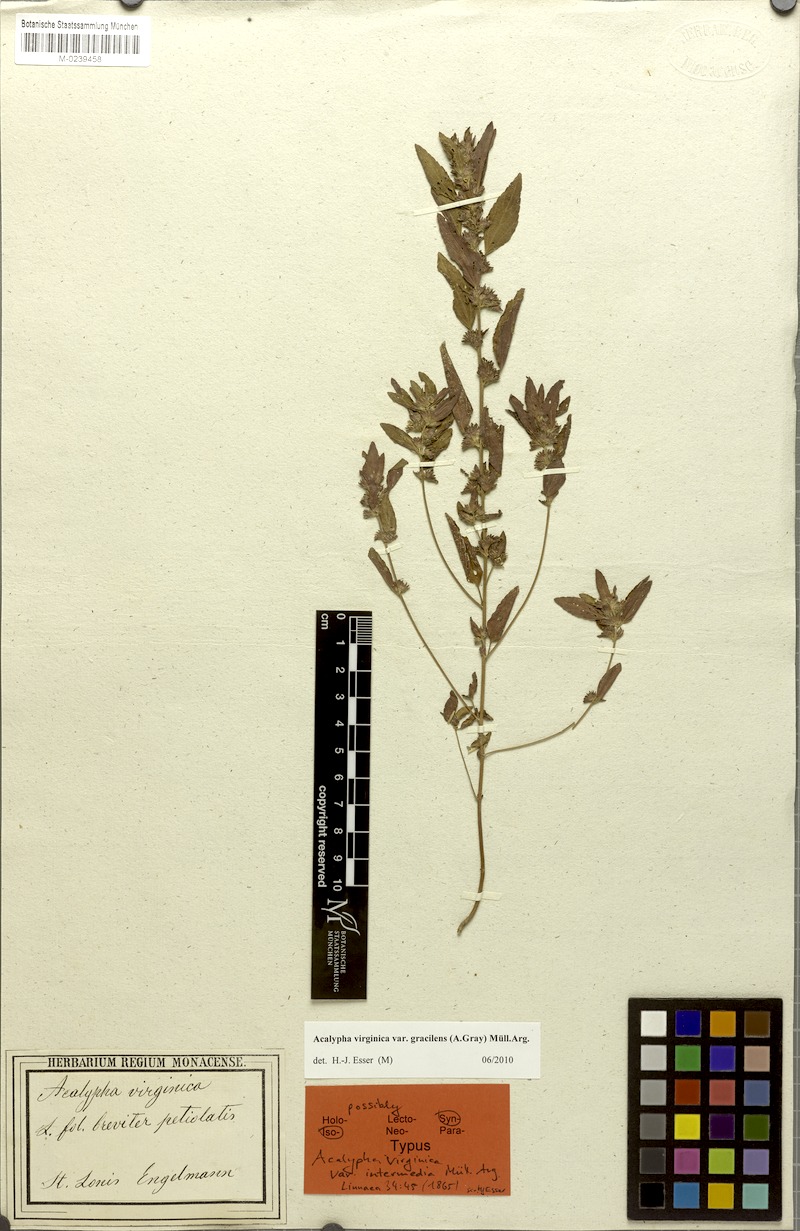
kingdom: Plantae
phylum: Tracheophyta
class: Magnoliopsida
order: Malpighiales
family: Euphorbiaceae
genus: Acalypha
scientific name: Acalypha gracilens
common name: Slender three-seeded mercury
